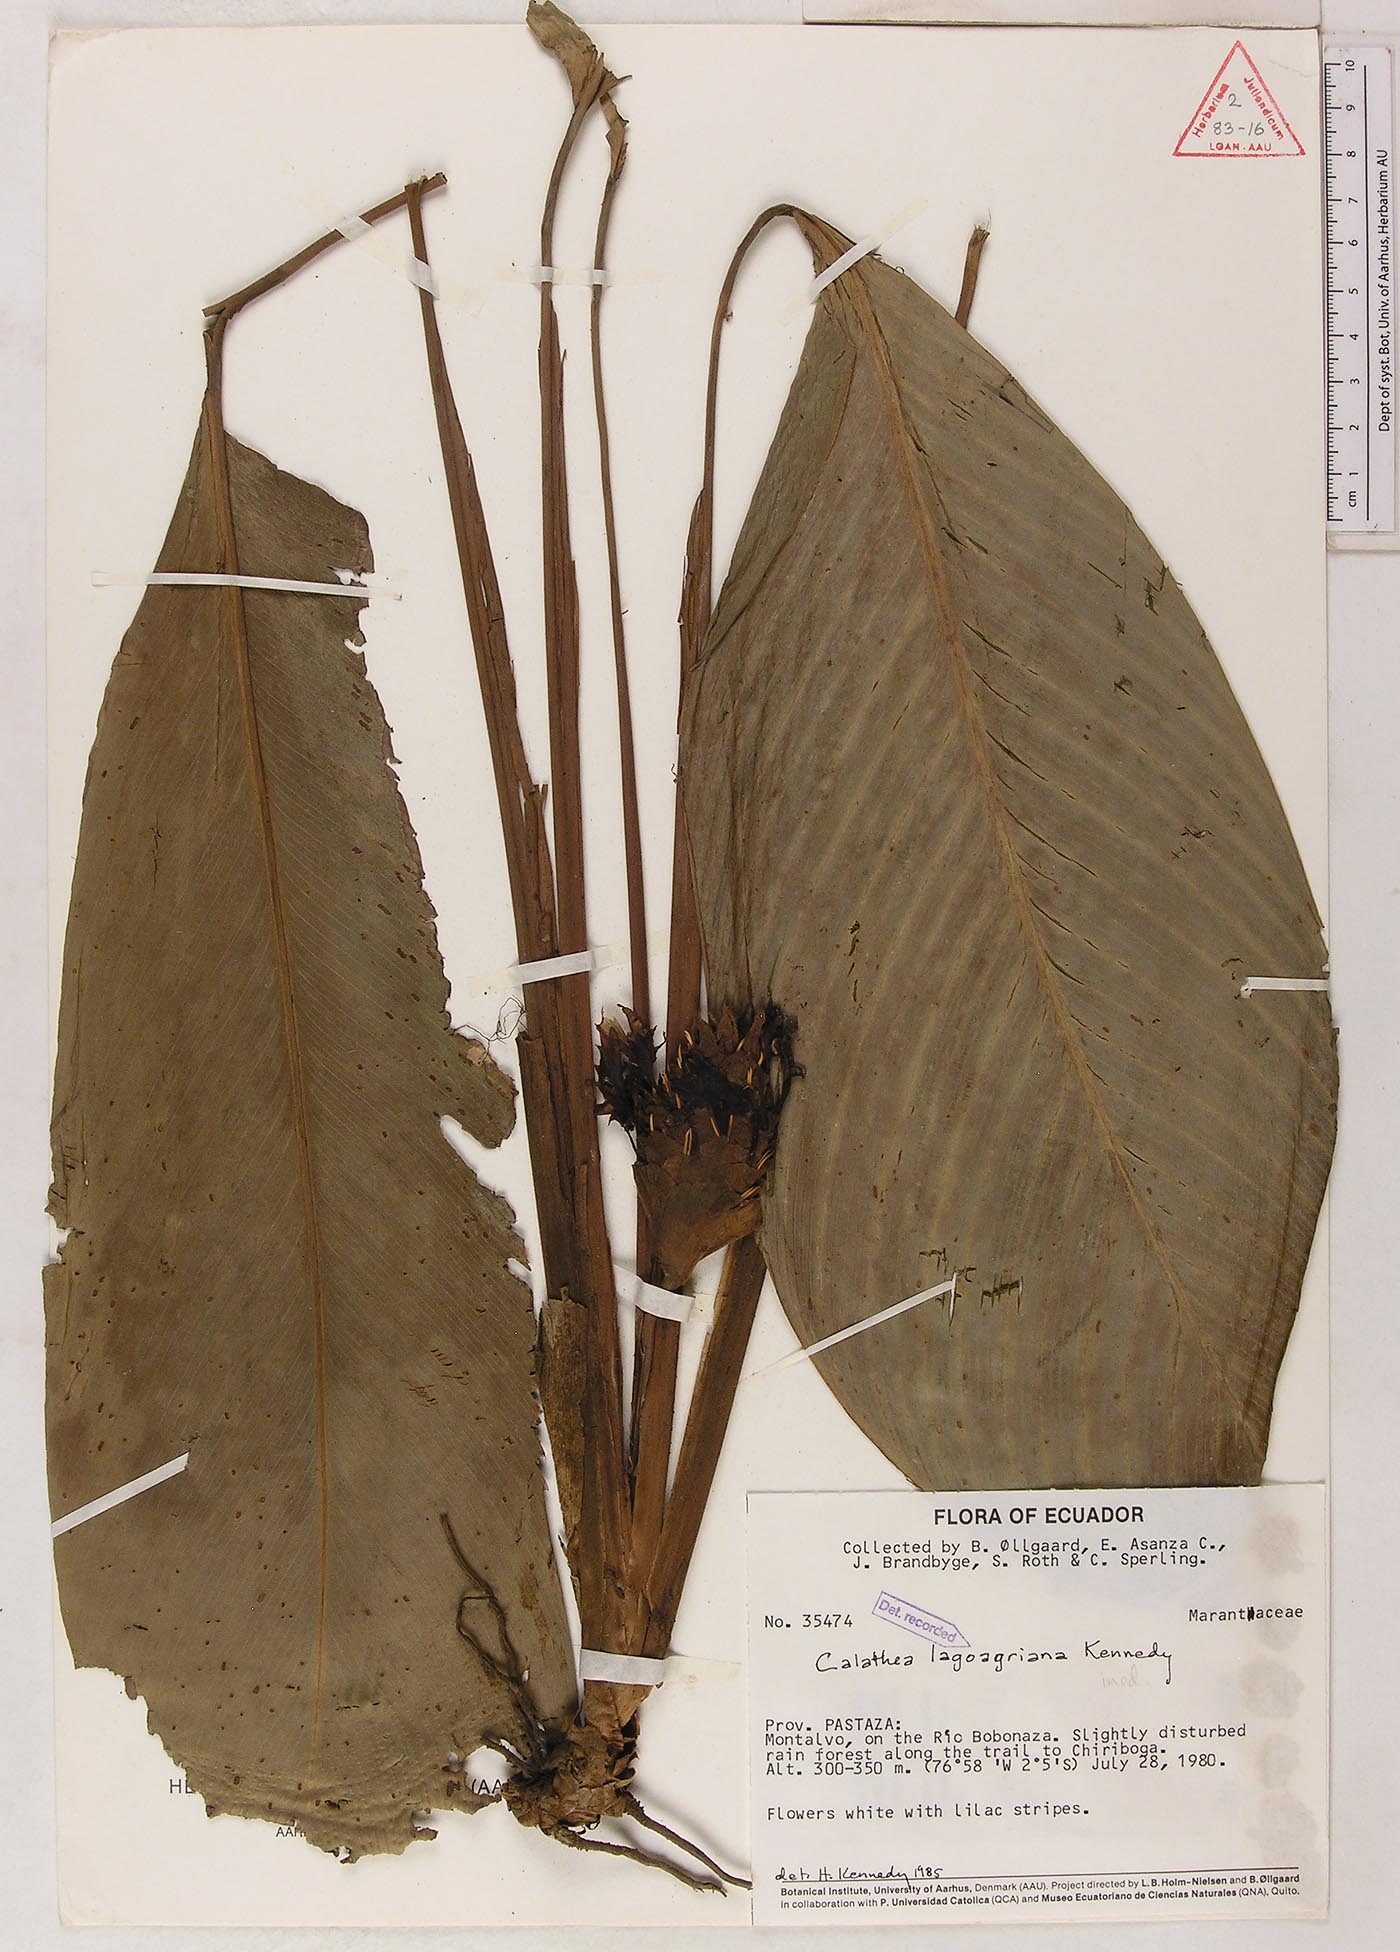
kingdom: Plantae
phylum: Tracheophyta
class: Liliopsida
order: Zingiberales
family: Marantaceae
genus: Goeppertia
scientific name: Goeppertia lagoagriana
